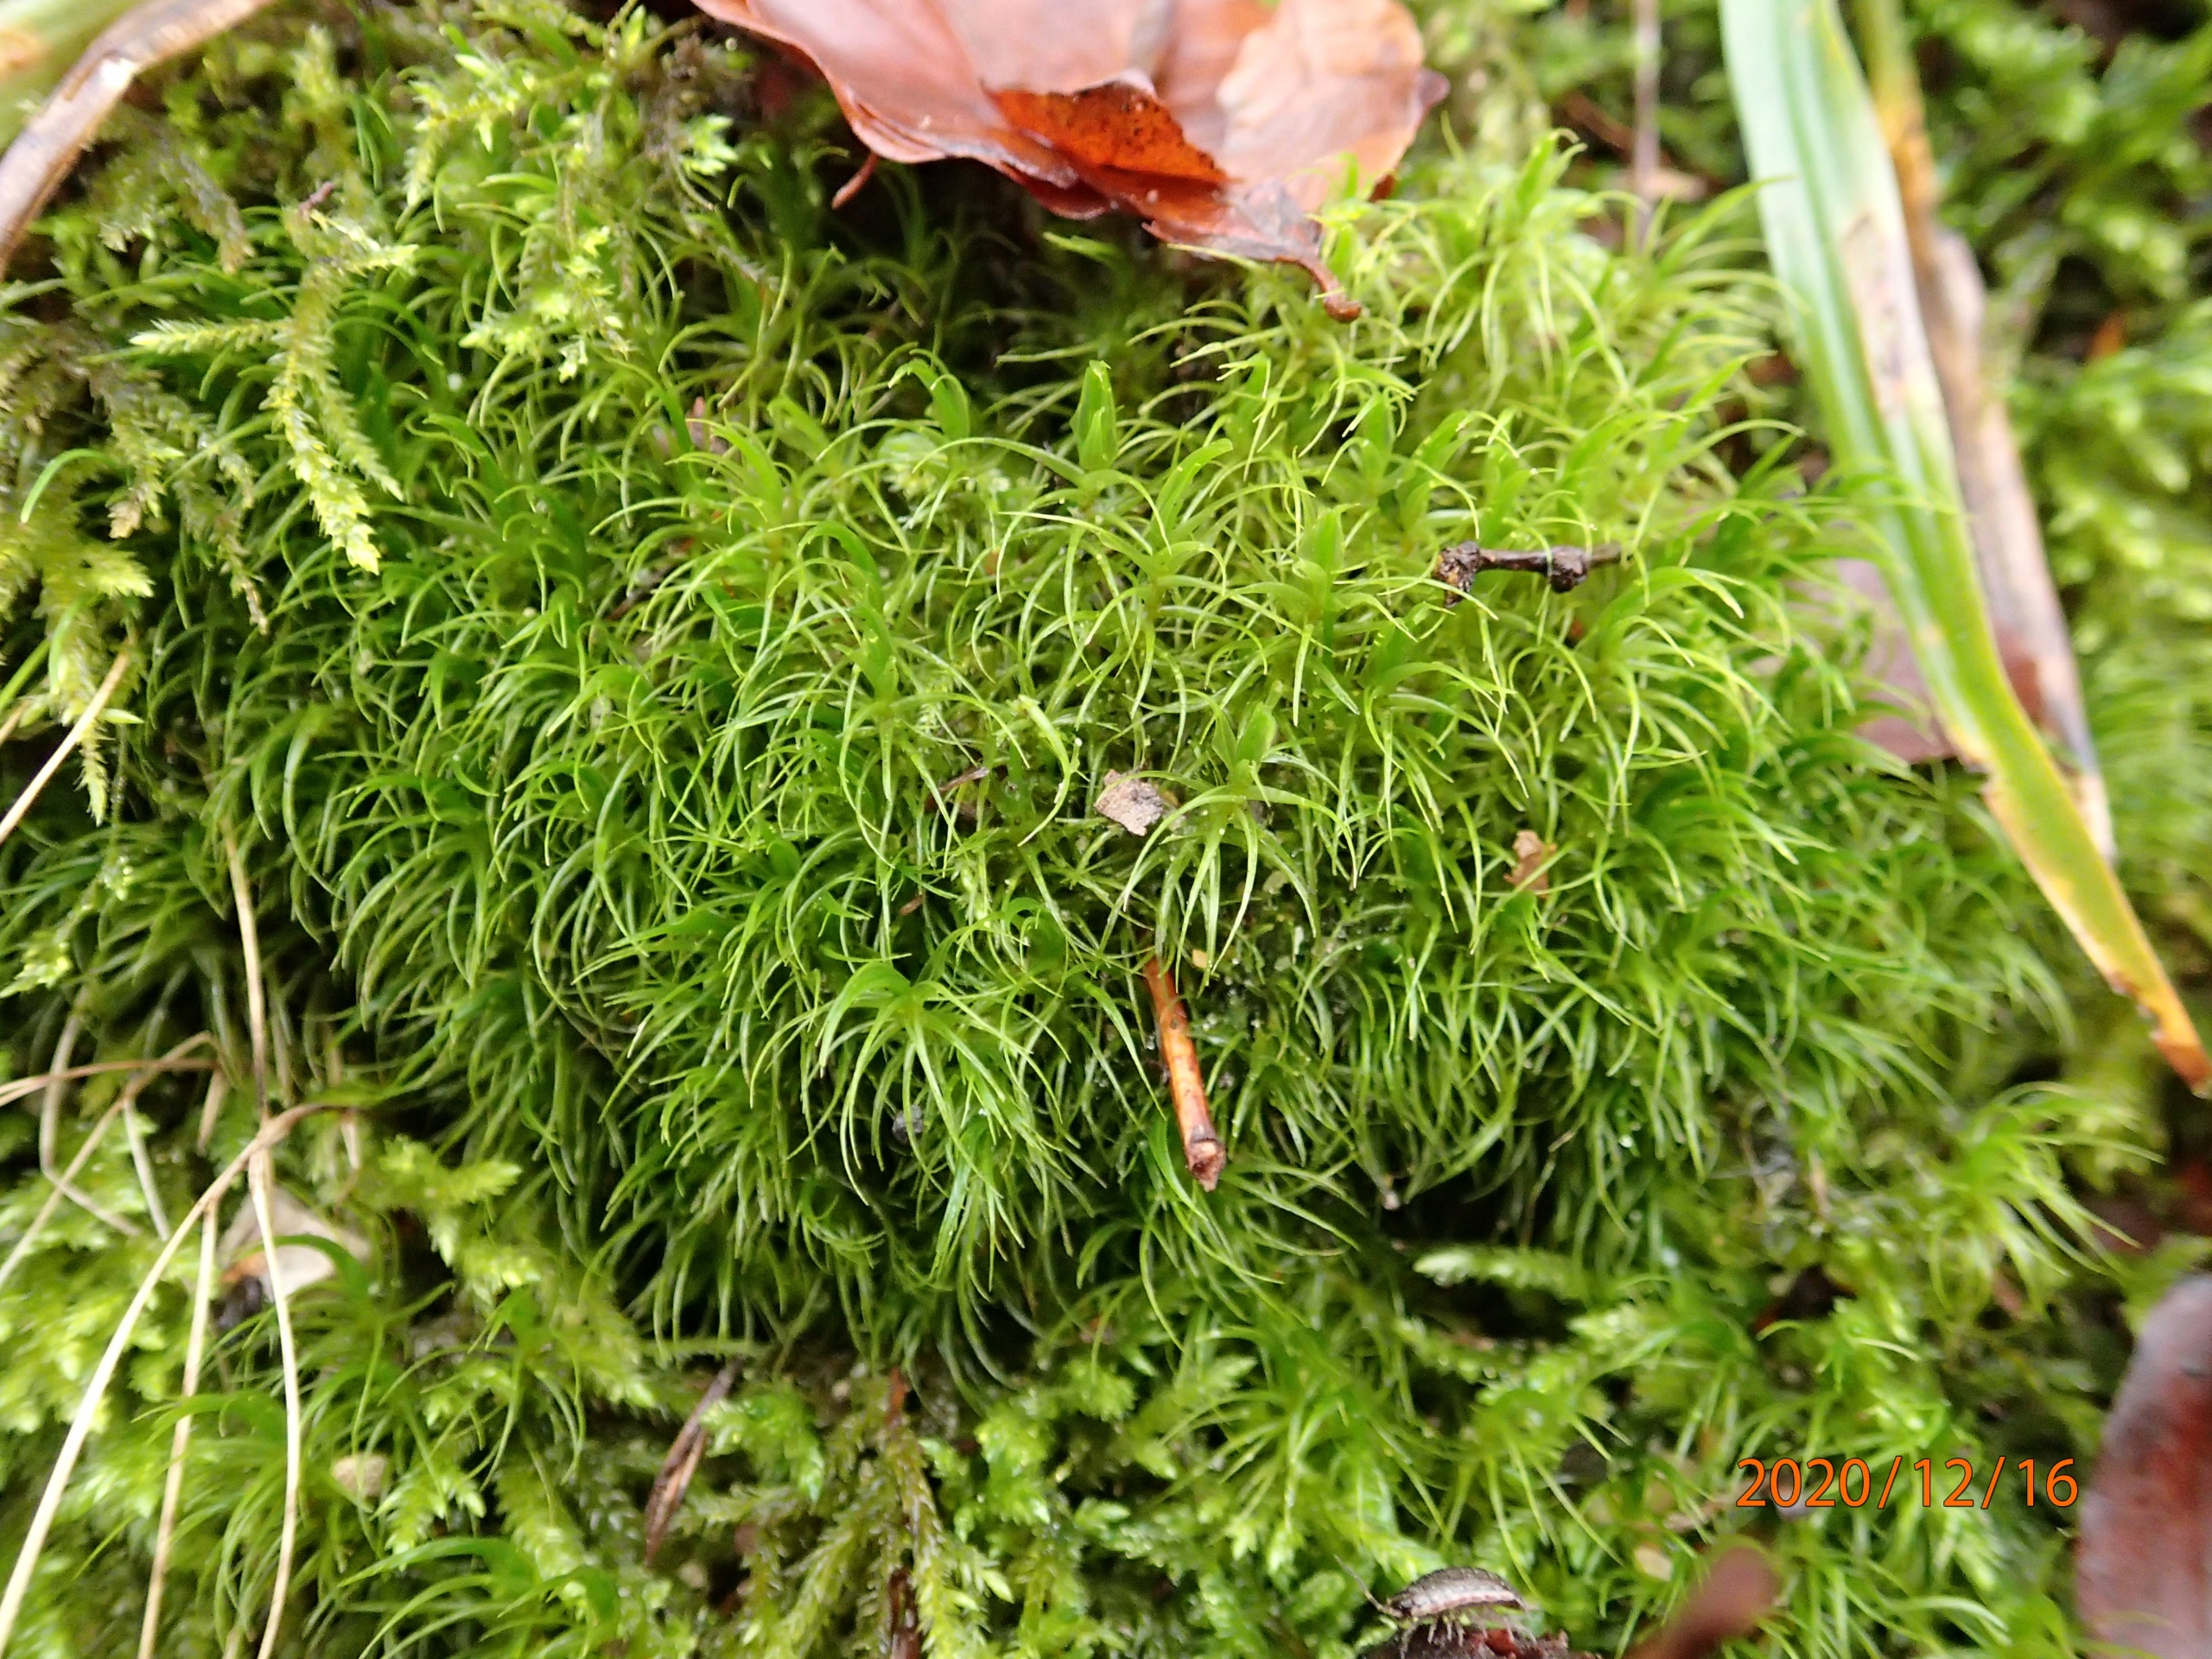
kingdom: Plantae
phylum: Bryophyta
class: Bryopsida
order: Dicranales
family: Dicranaceae
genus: Dicranum
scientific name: Dicranum majus
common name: Stor kløvtand
